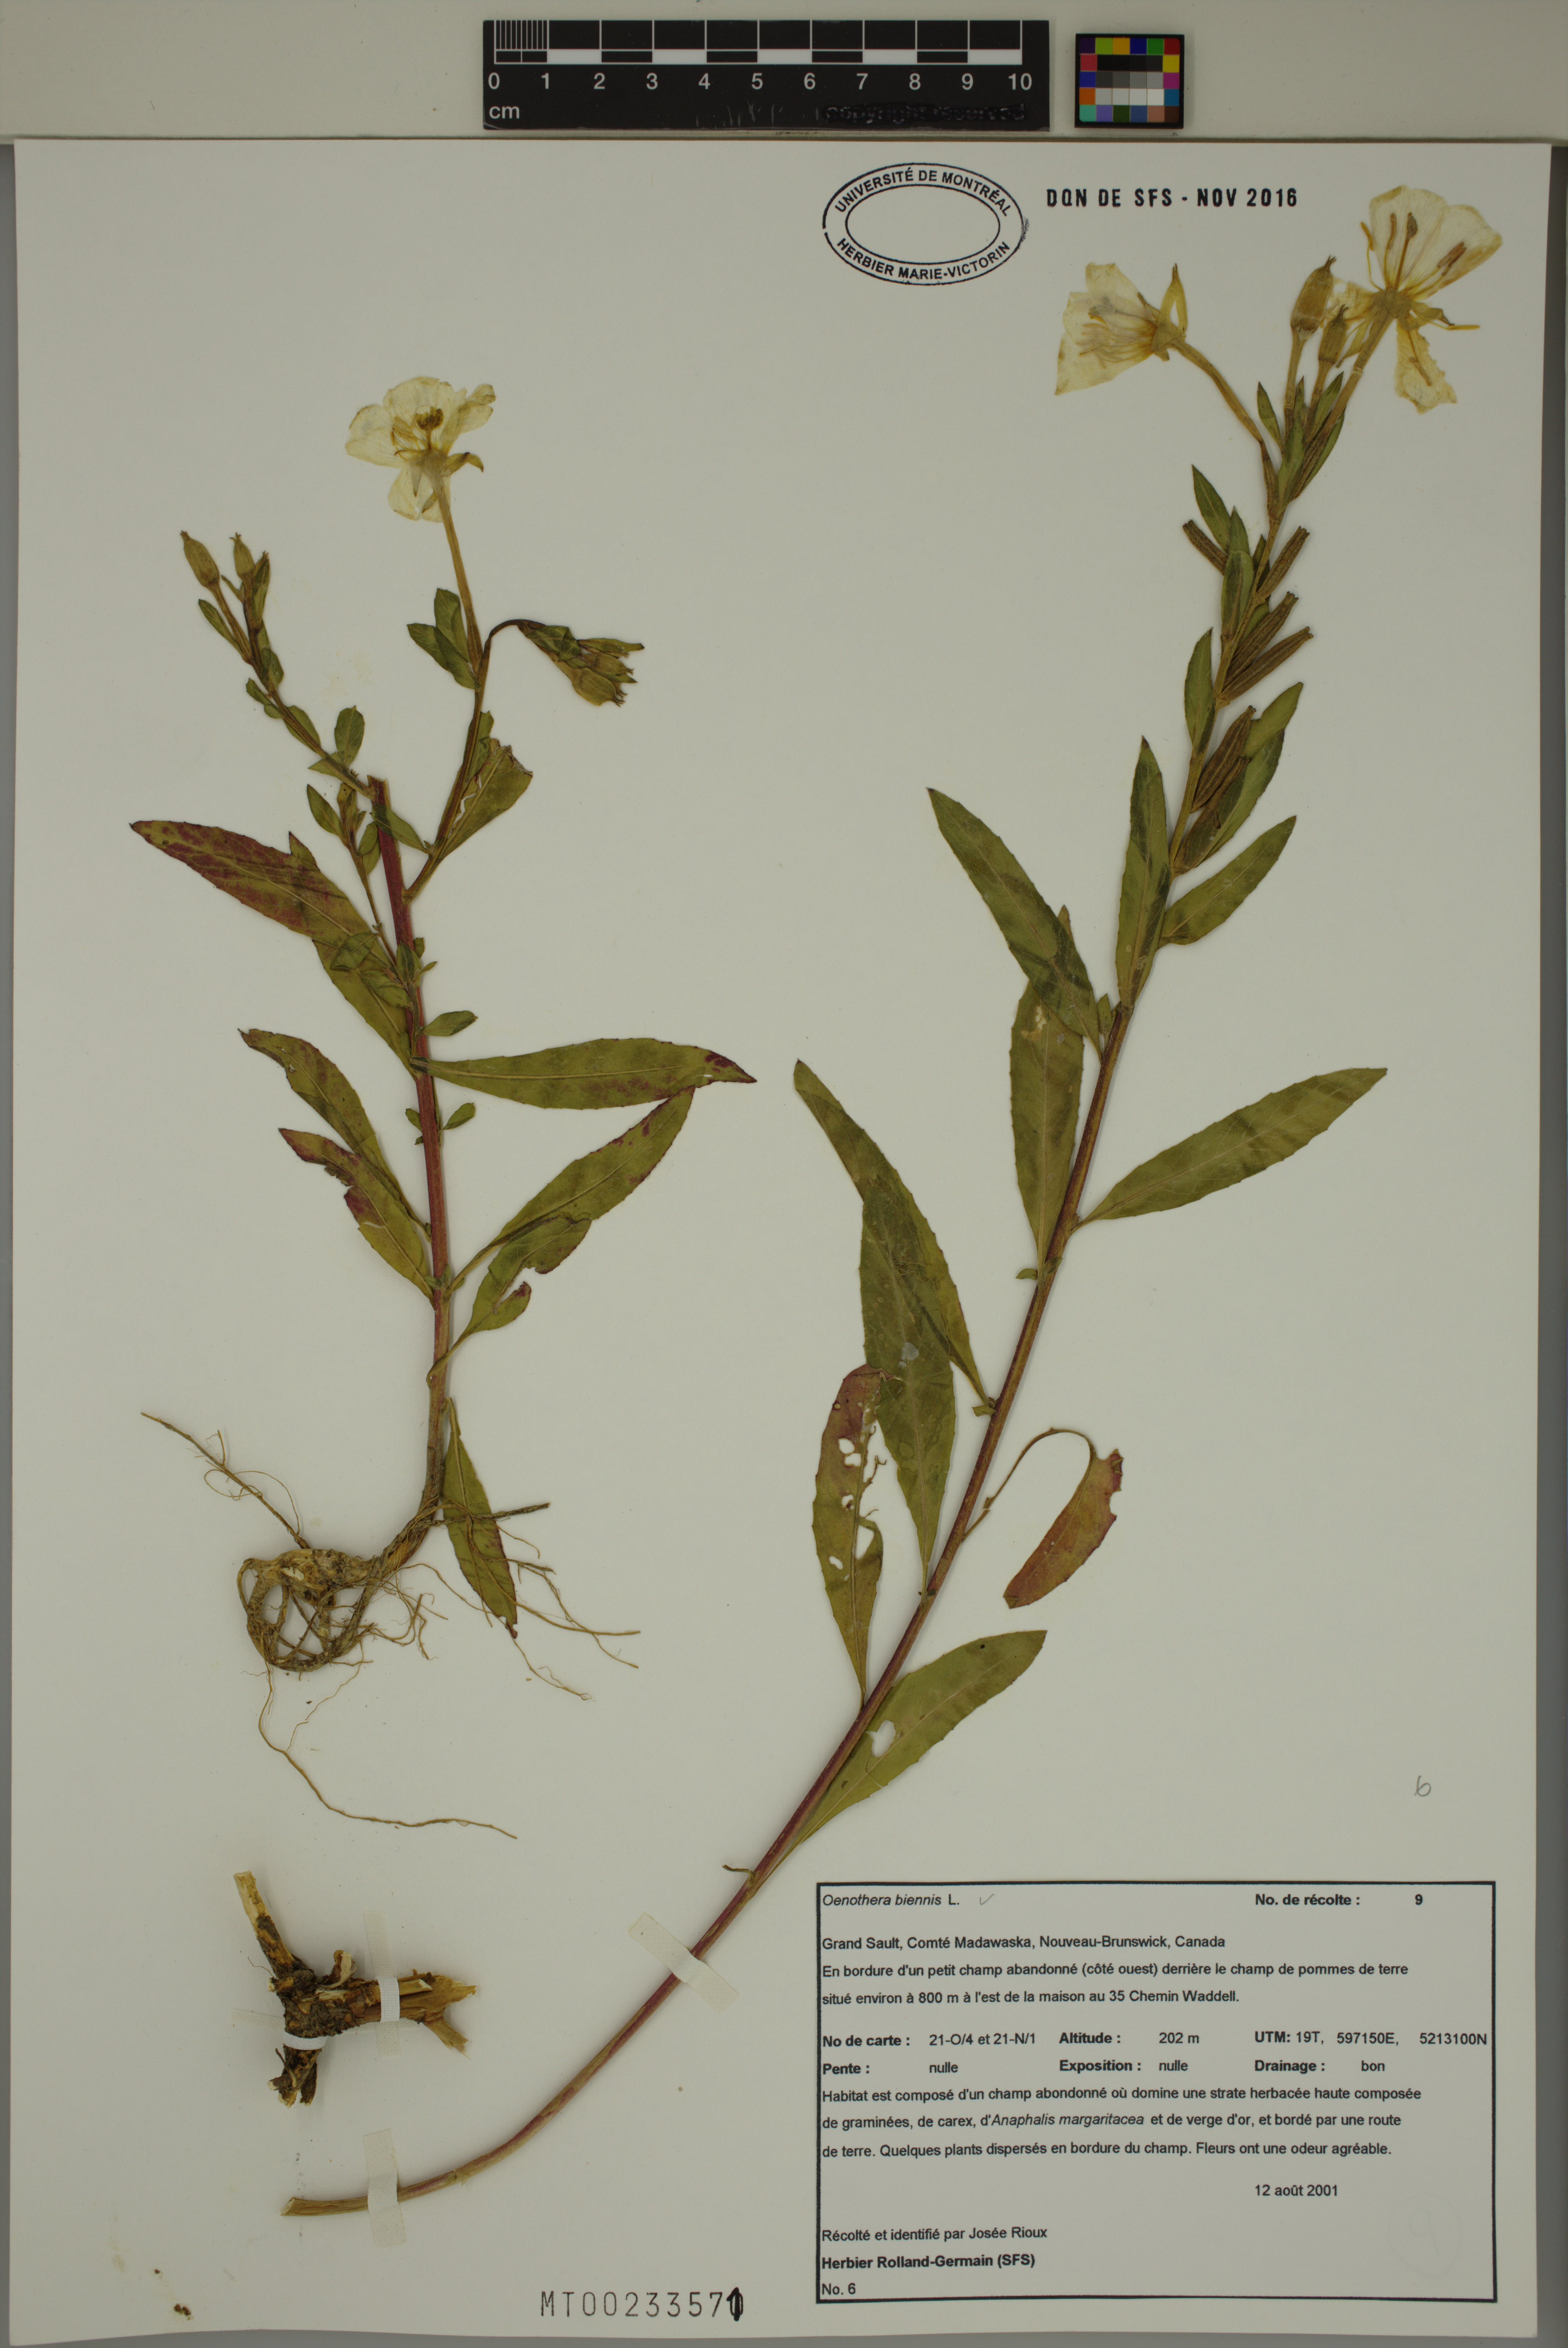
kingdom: Plantae
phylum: Tracheophyta
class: Magnoliopsida
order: Myrtales
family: Onagraceae
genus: Oenothera
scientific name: Oenothera biennis
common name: Common evening-primrose
